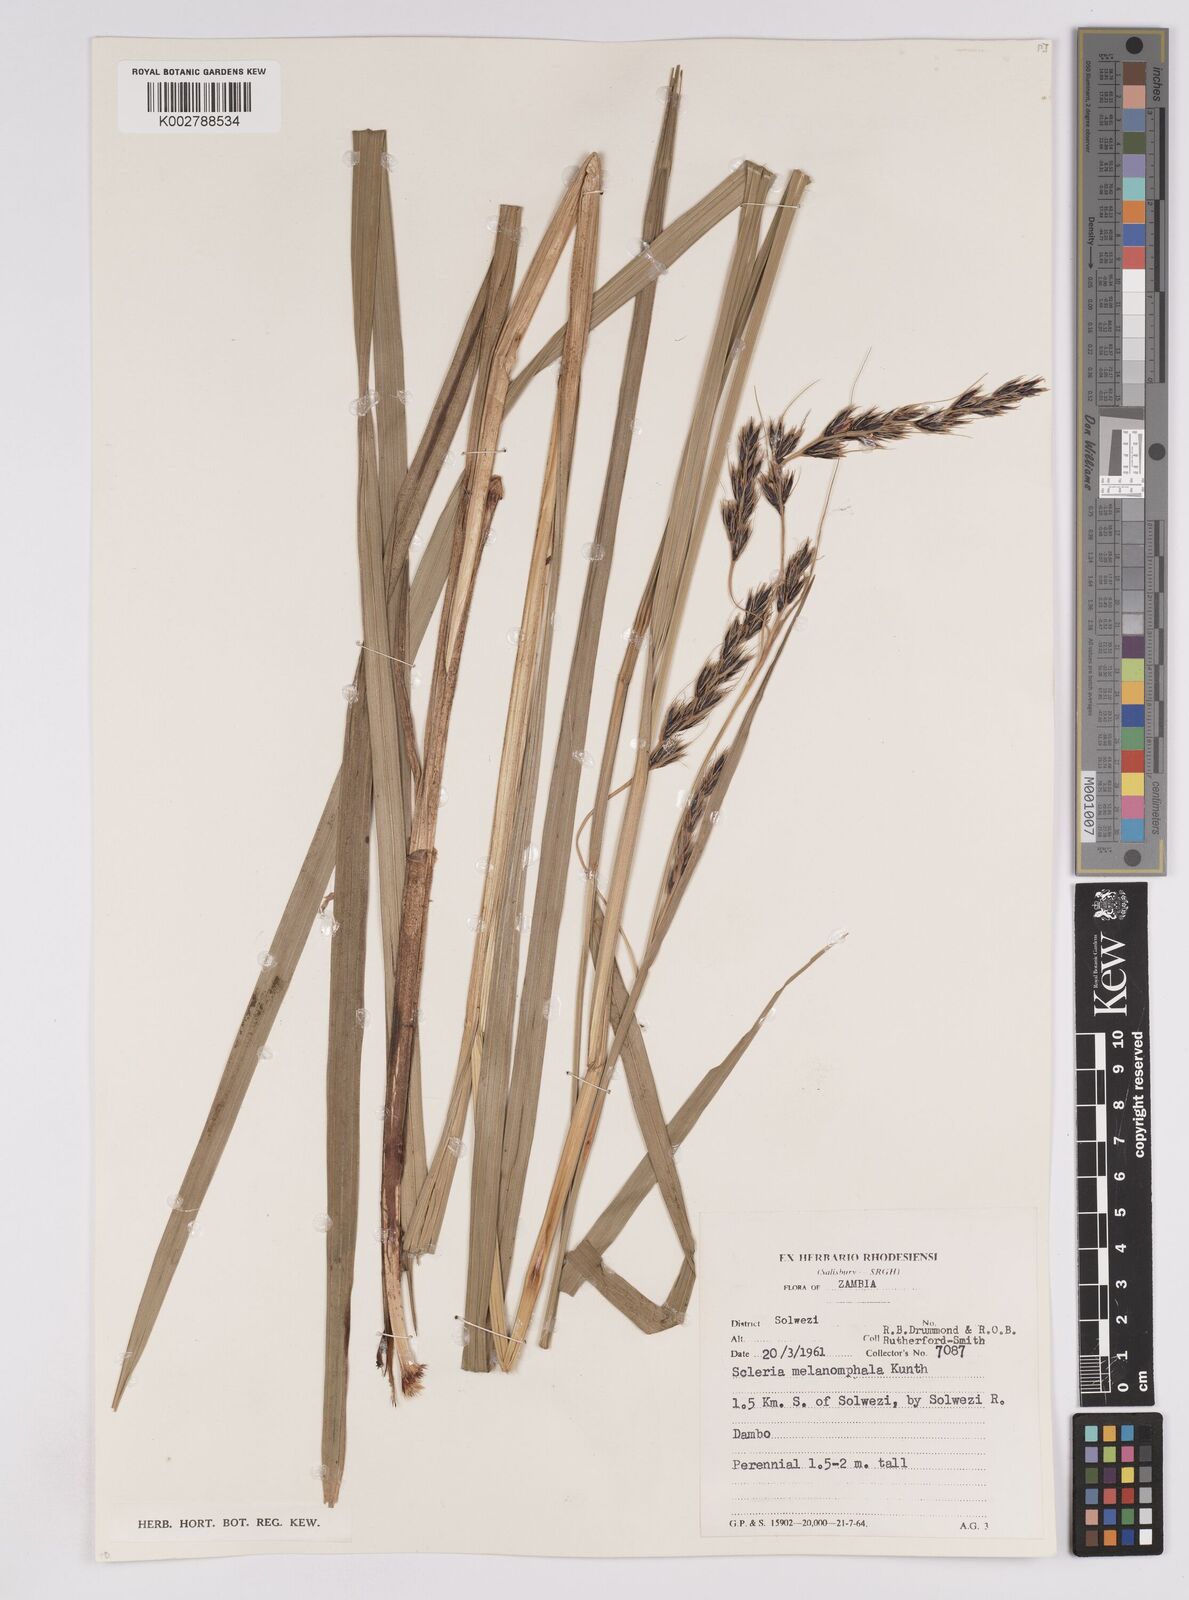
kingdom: Plantae
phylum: Tracheophyta
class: Liliopsida
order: Poales
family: Cyperaceae
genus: Scleria
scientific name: Scleria melanomphala
